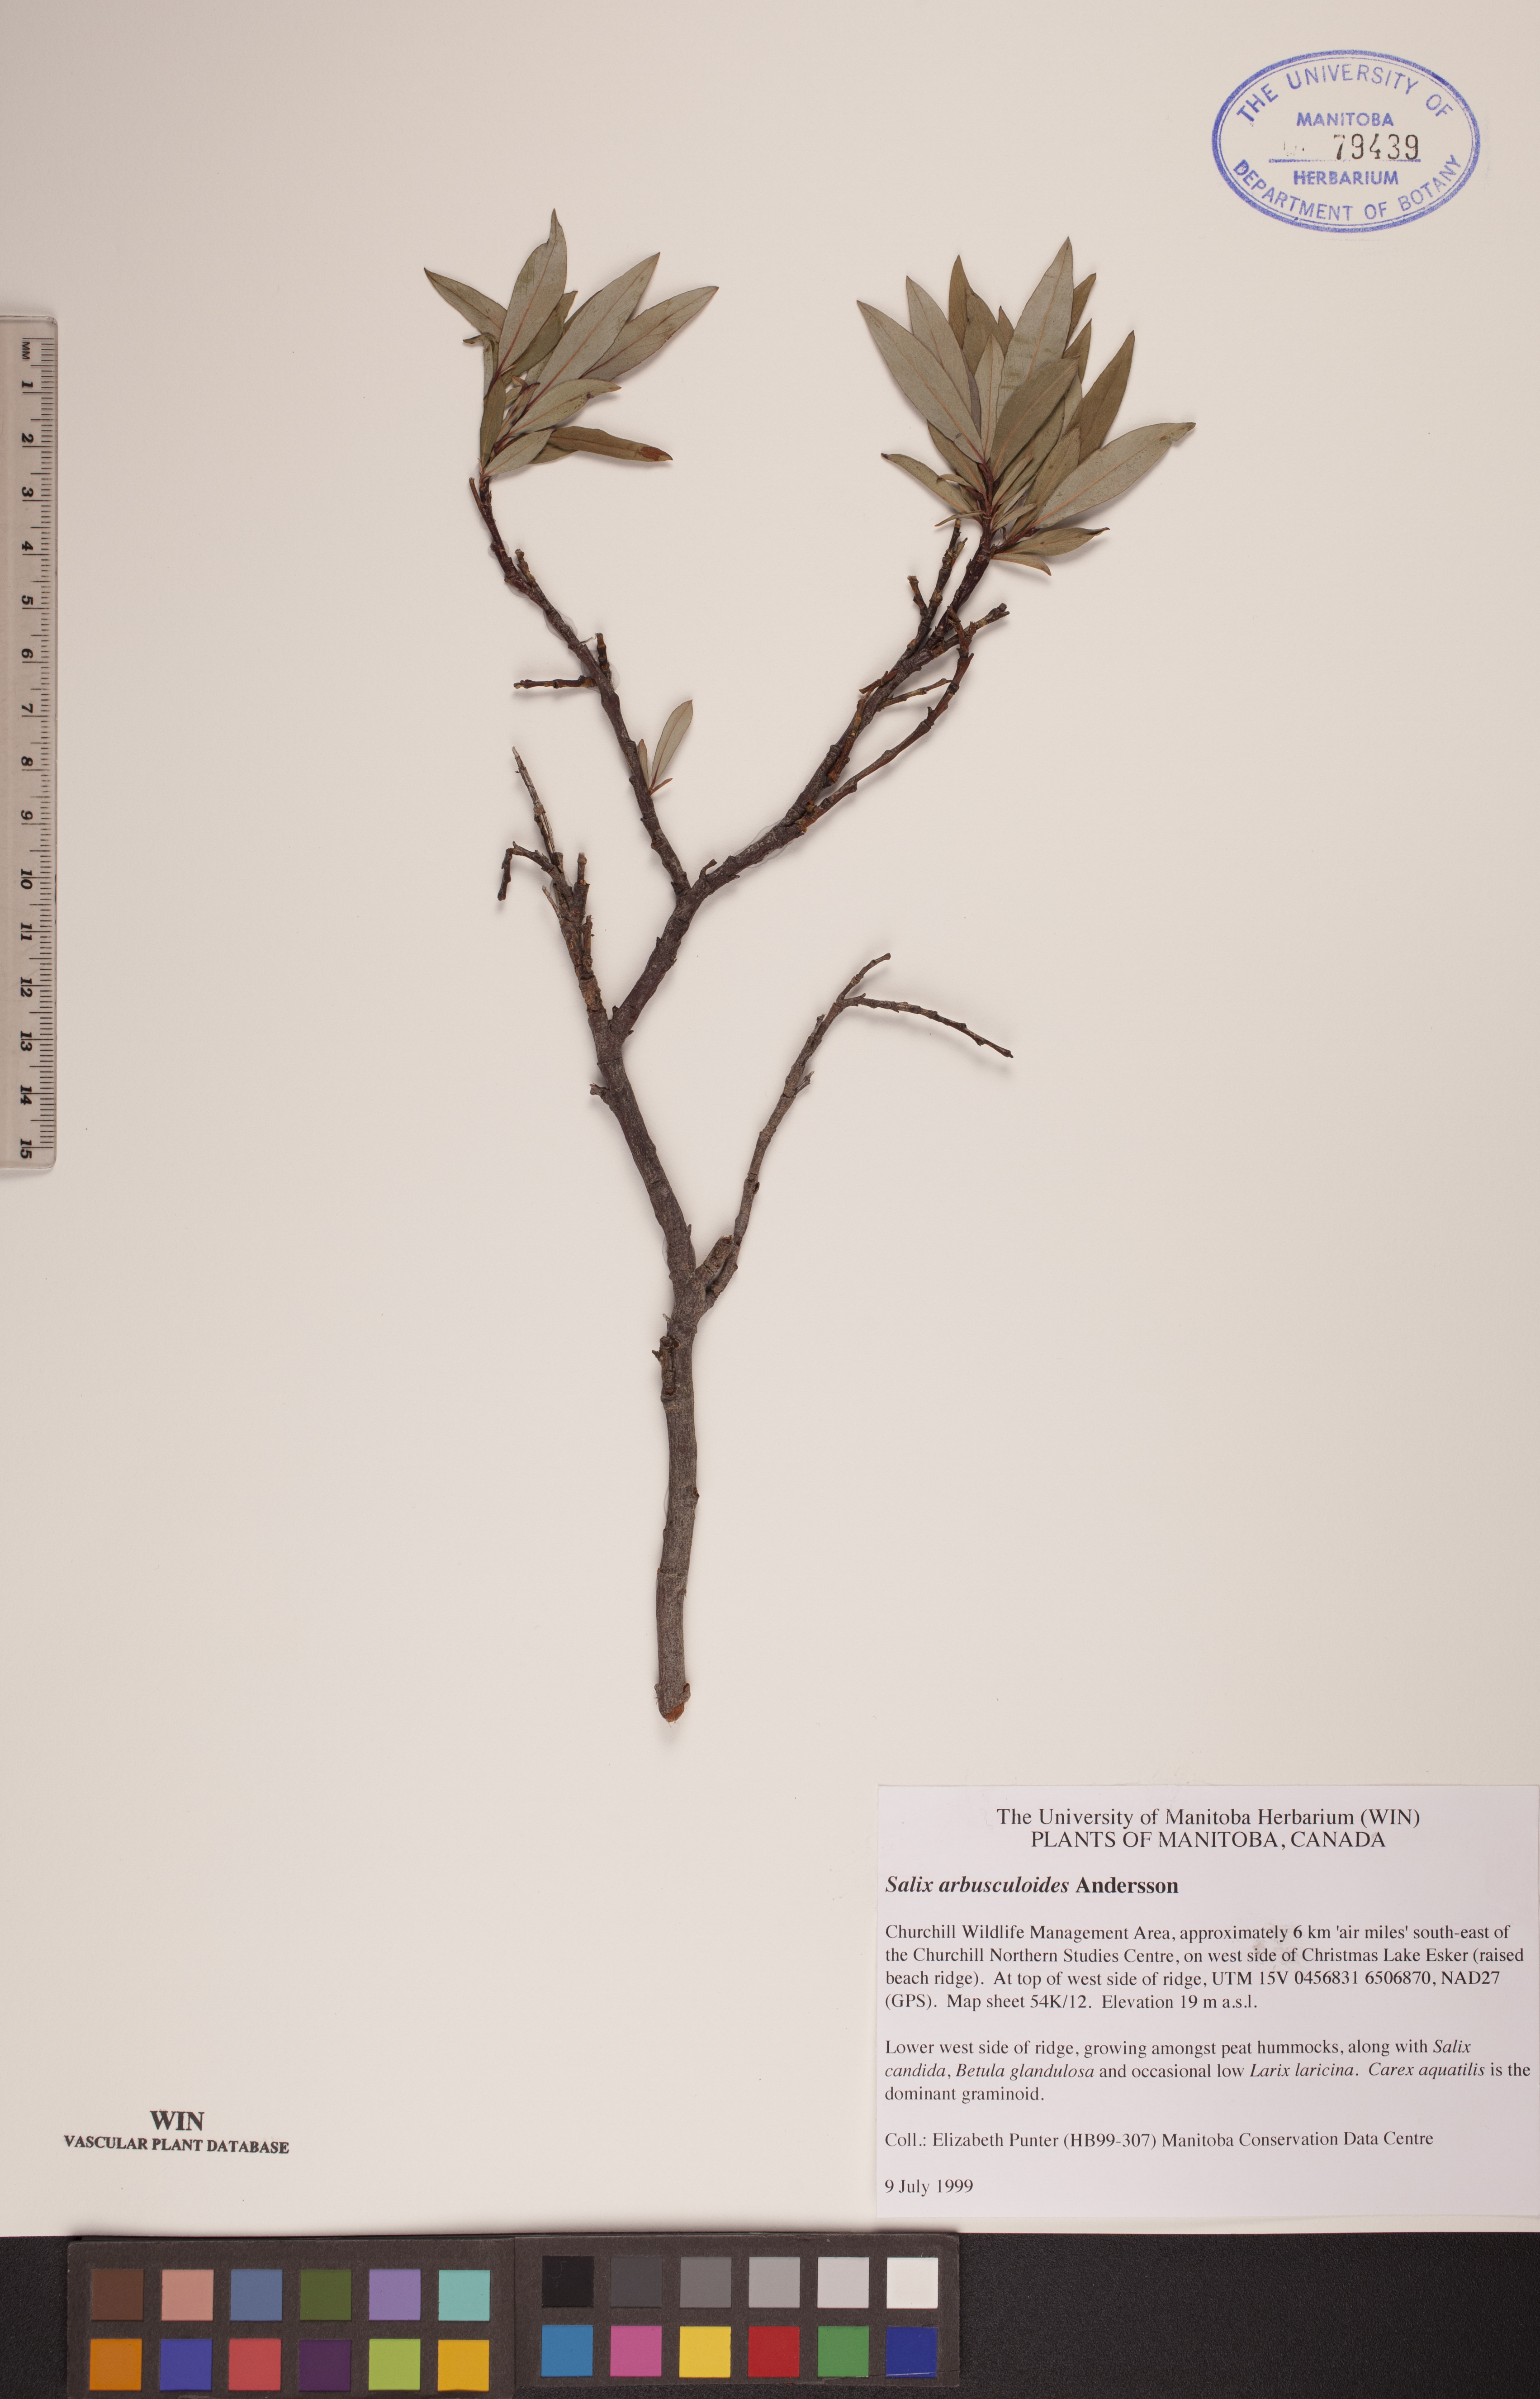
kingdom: Plantae
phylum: Tracheophyta
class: Magnoliopsida
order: Malpighiales
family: Salicaceae
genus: Salix
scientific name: Salix arbusculoides
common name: Little-tree willow
